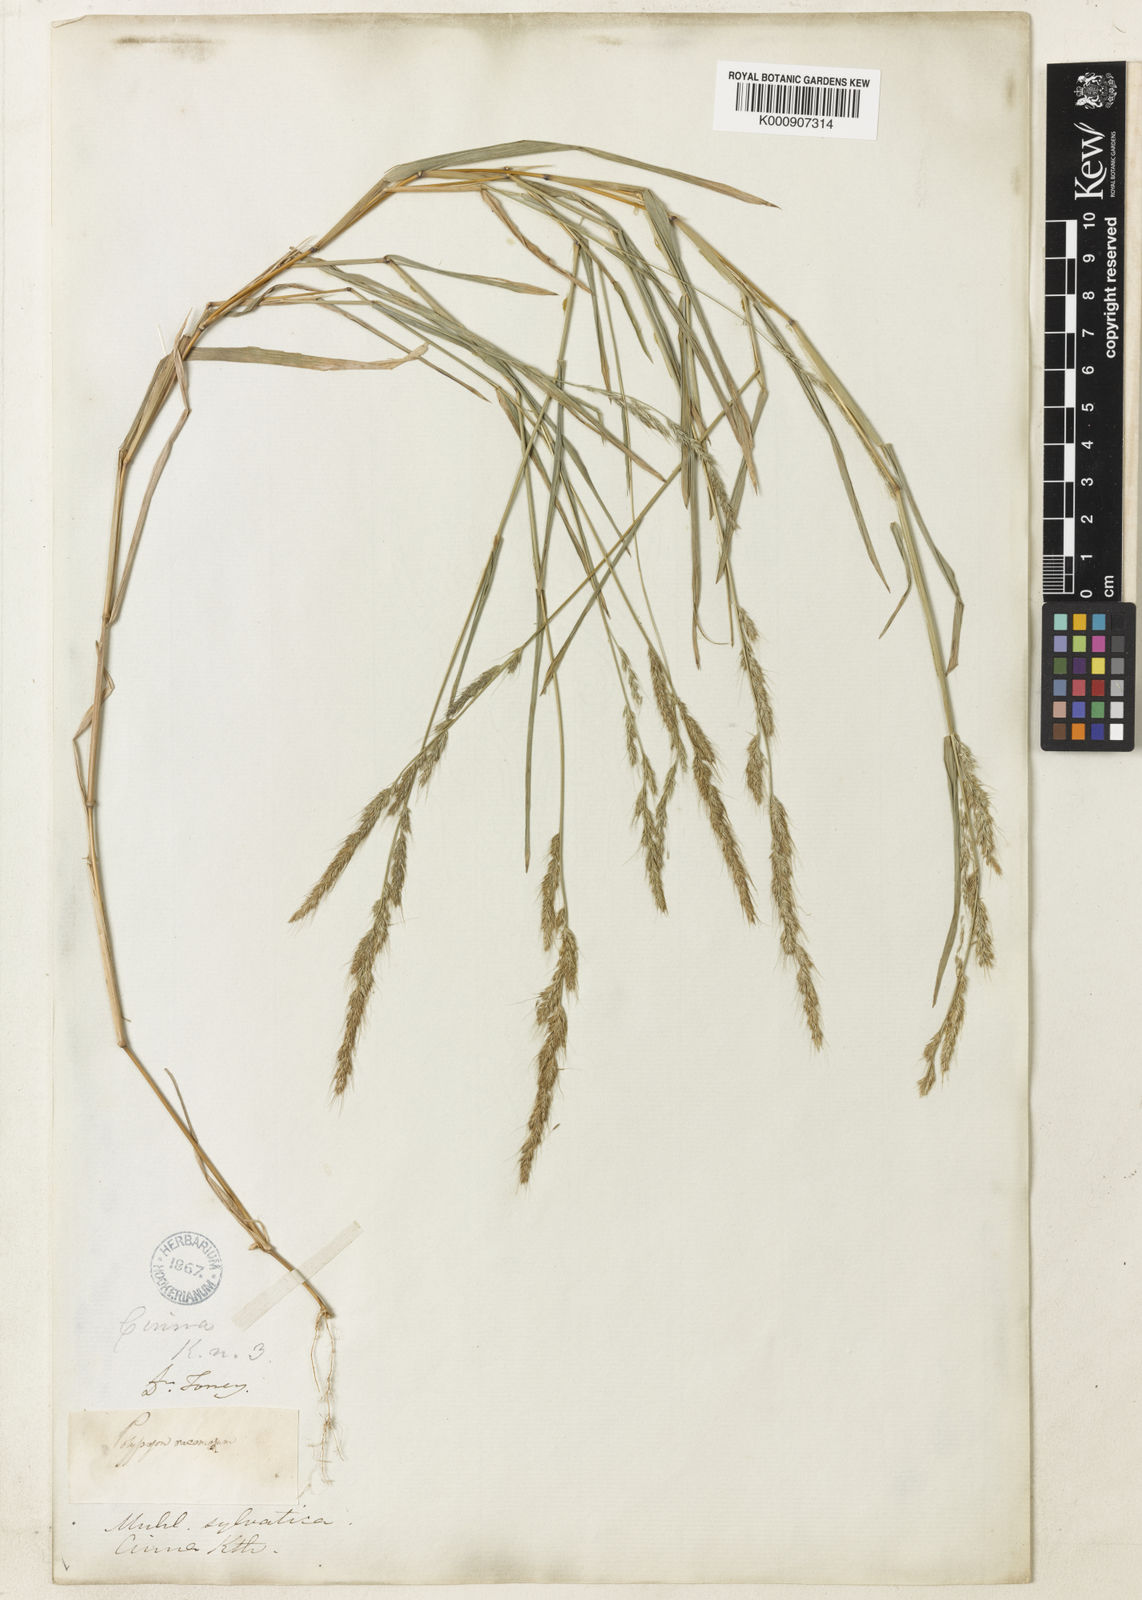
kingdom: Plantae
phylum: Tracheophyta
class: Liliopsida
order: Poales
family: Poaceae
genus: Muhlenbergia
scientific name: Muhlenbergia sylvatica
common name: Woodland muhly
